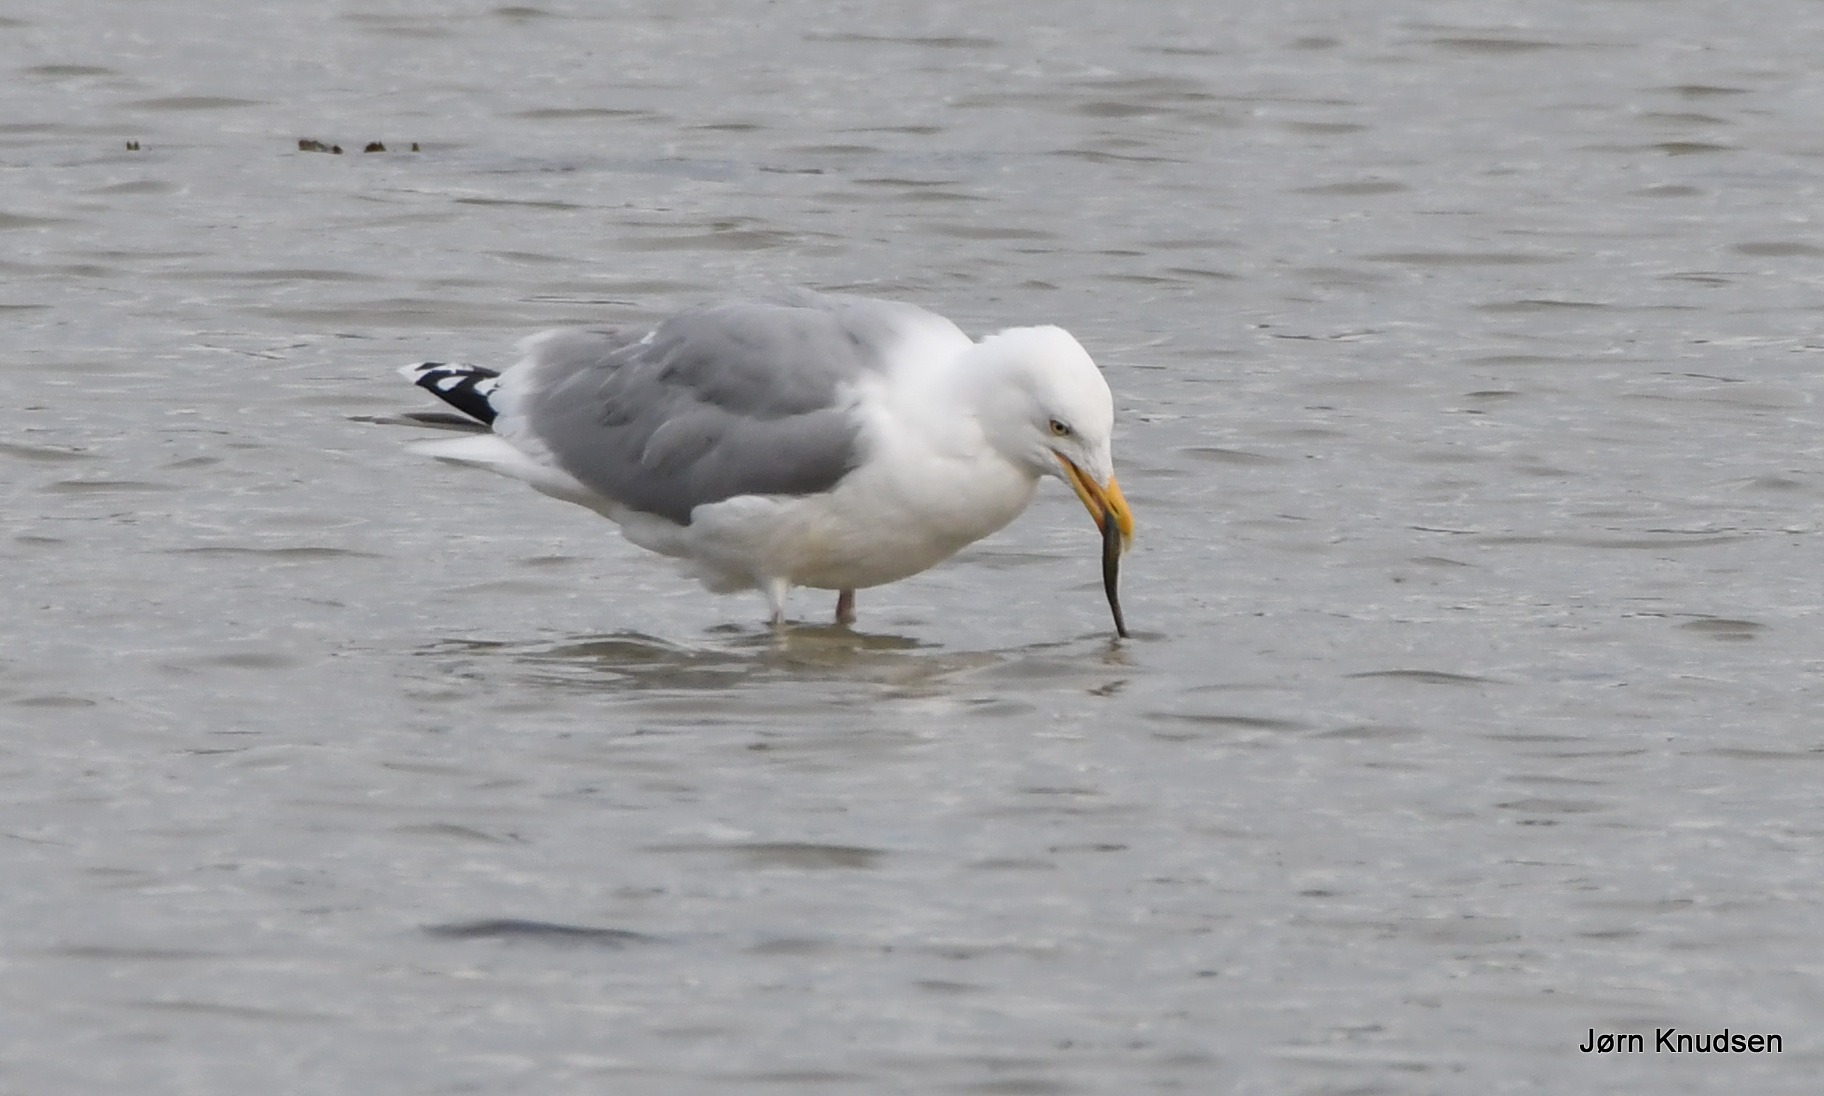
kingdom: Animalia
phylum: Chordata
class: Aves
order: Charadriiformes
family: Laridae
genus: Larus
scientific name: Larus argentatus
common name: Sølvmåge
